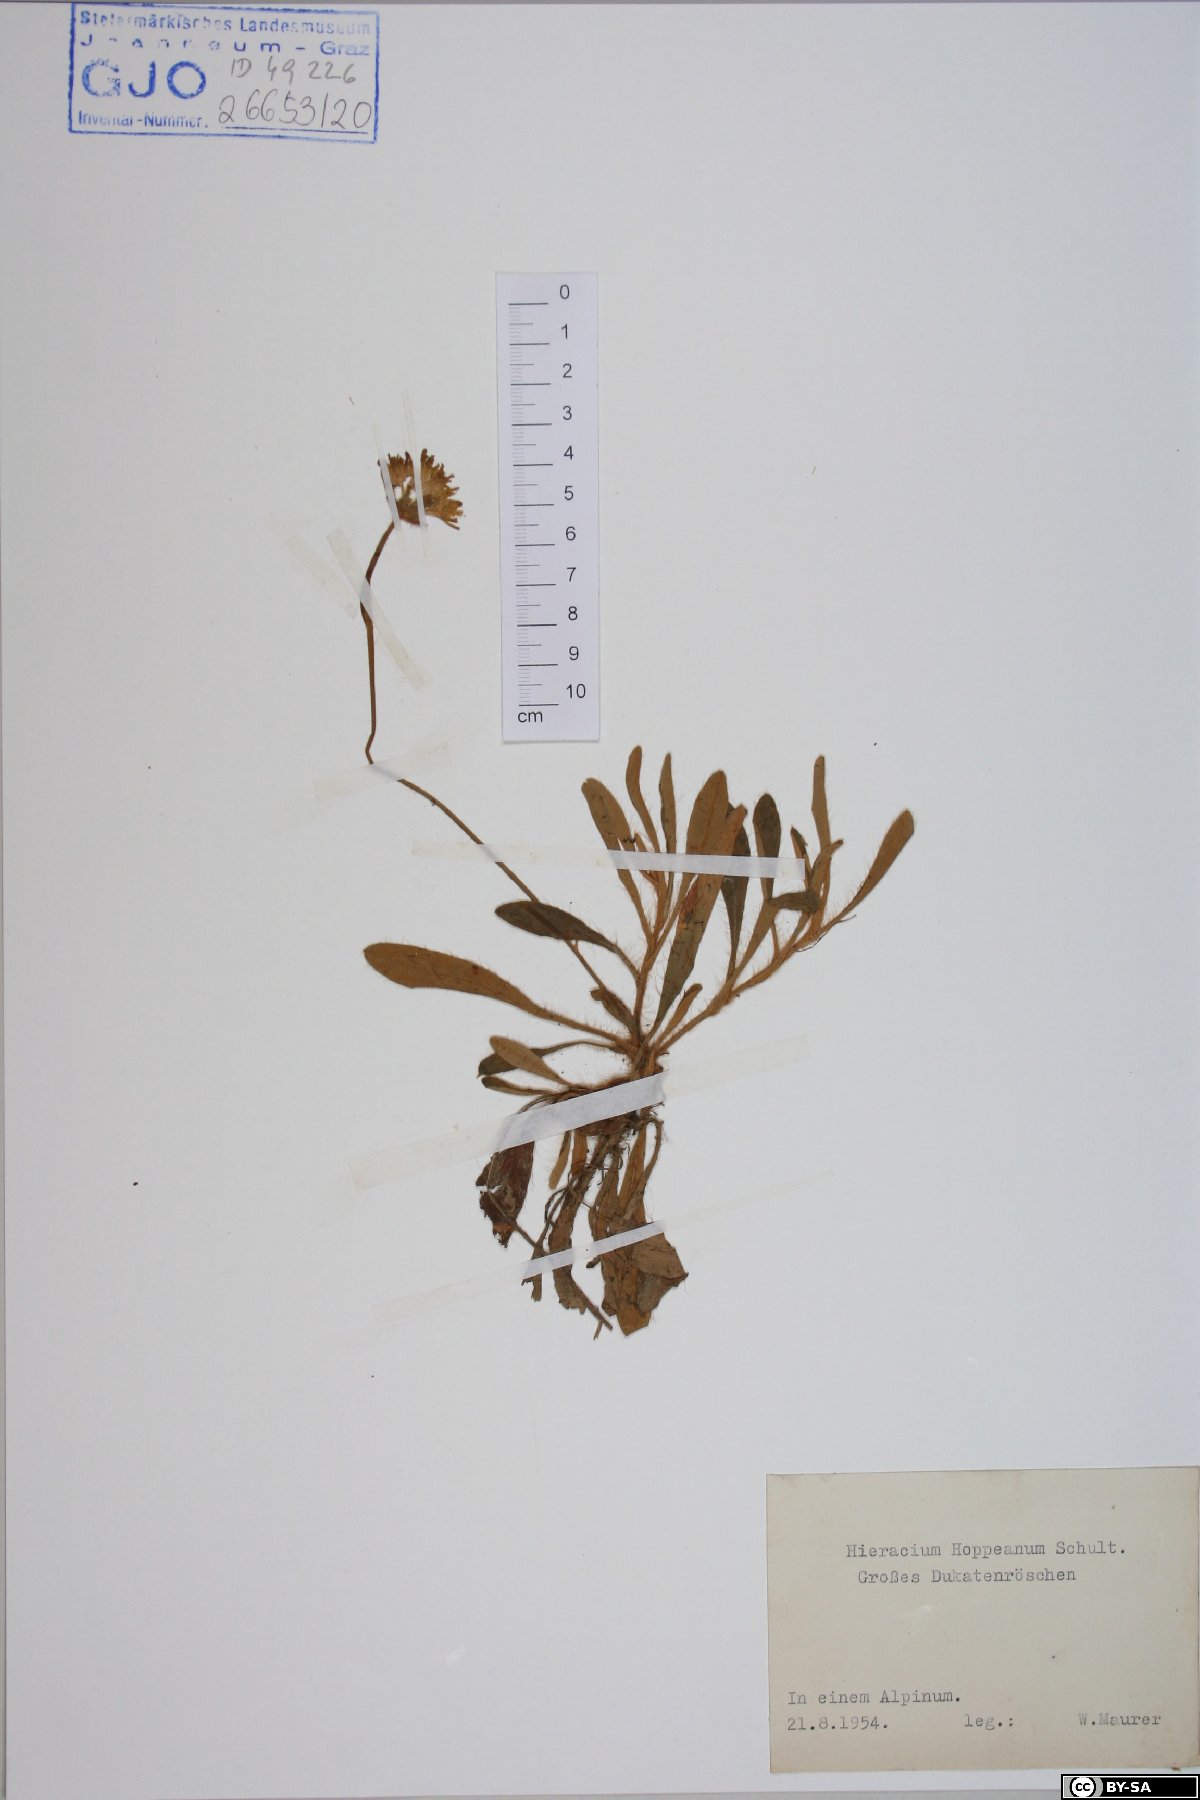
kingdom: Plantae
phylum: Tracheophyta
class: Magnoliopsida
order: Asterales
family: Asteraceae
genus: Pilosella
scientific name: Pilosella hoppeana
